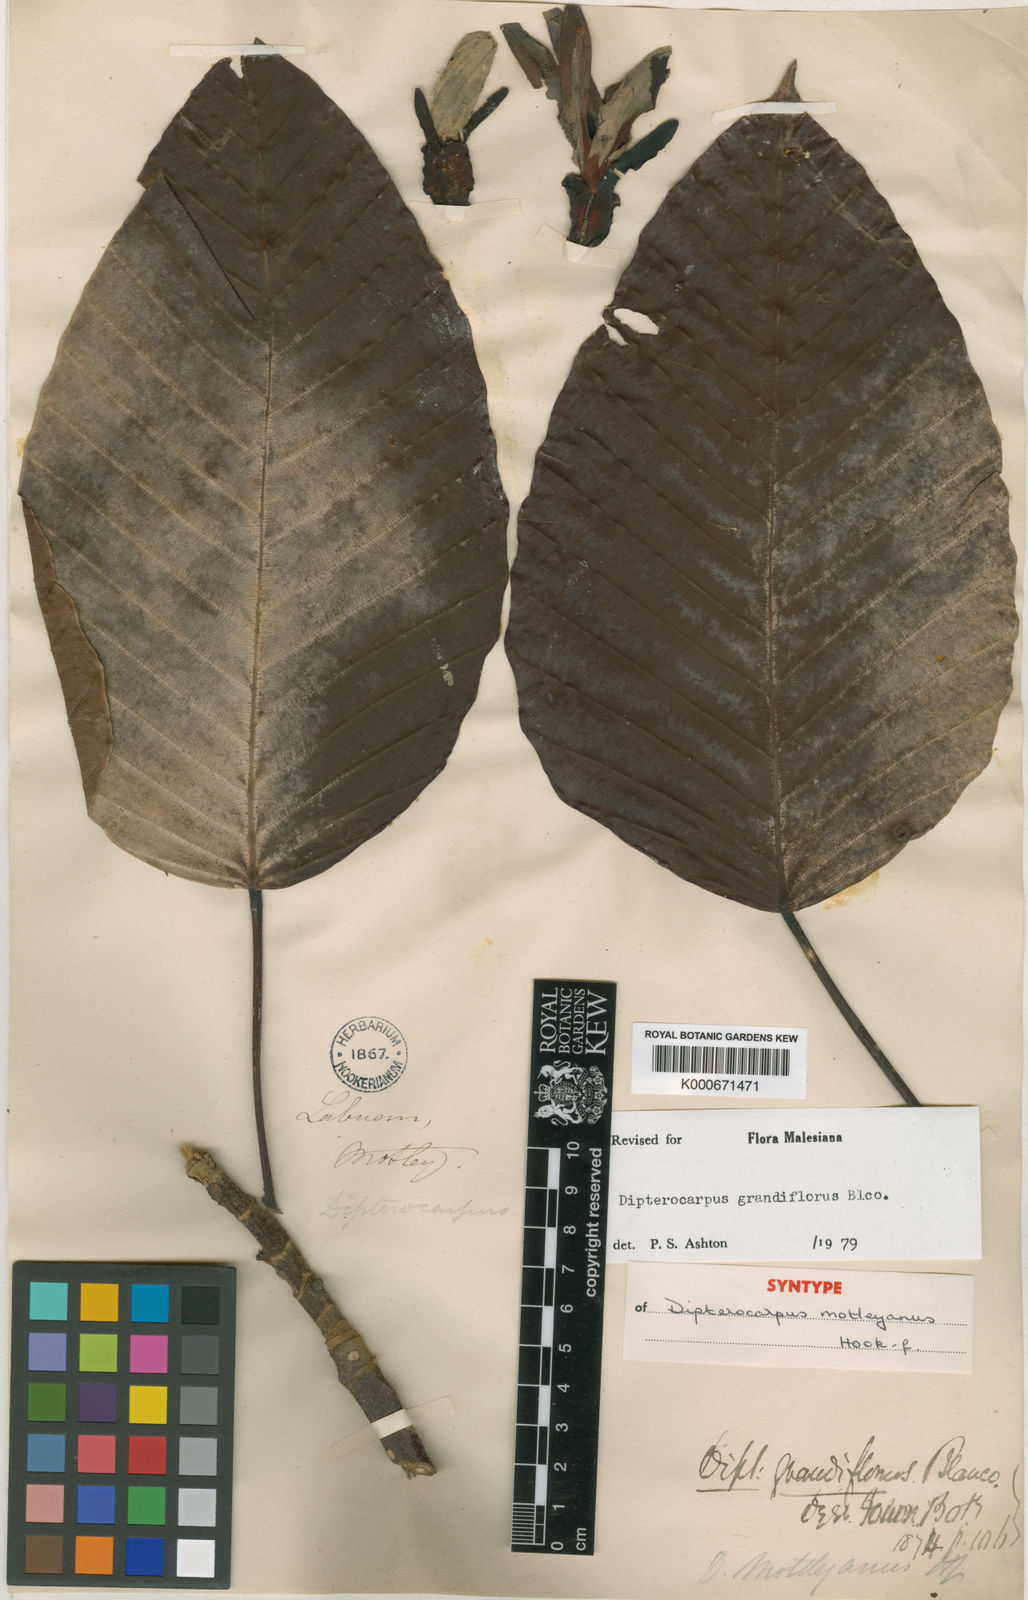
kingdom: Plantae
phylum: Tracheophyta
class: Magnoliopsida
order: Malvales
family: Dipterocarpaceae
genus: Dipterocarpus
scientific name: Dipterocarpus grandiflorus
